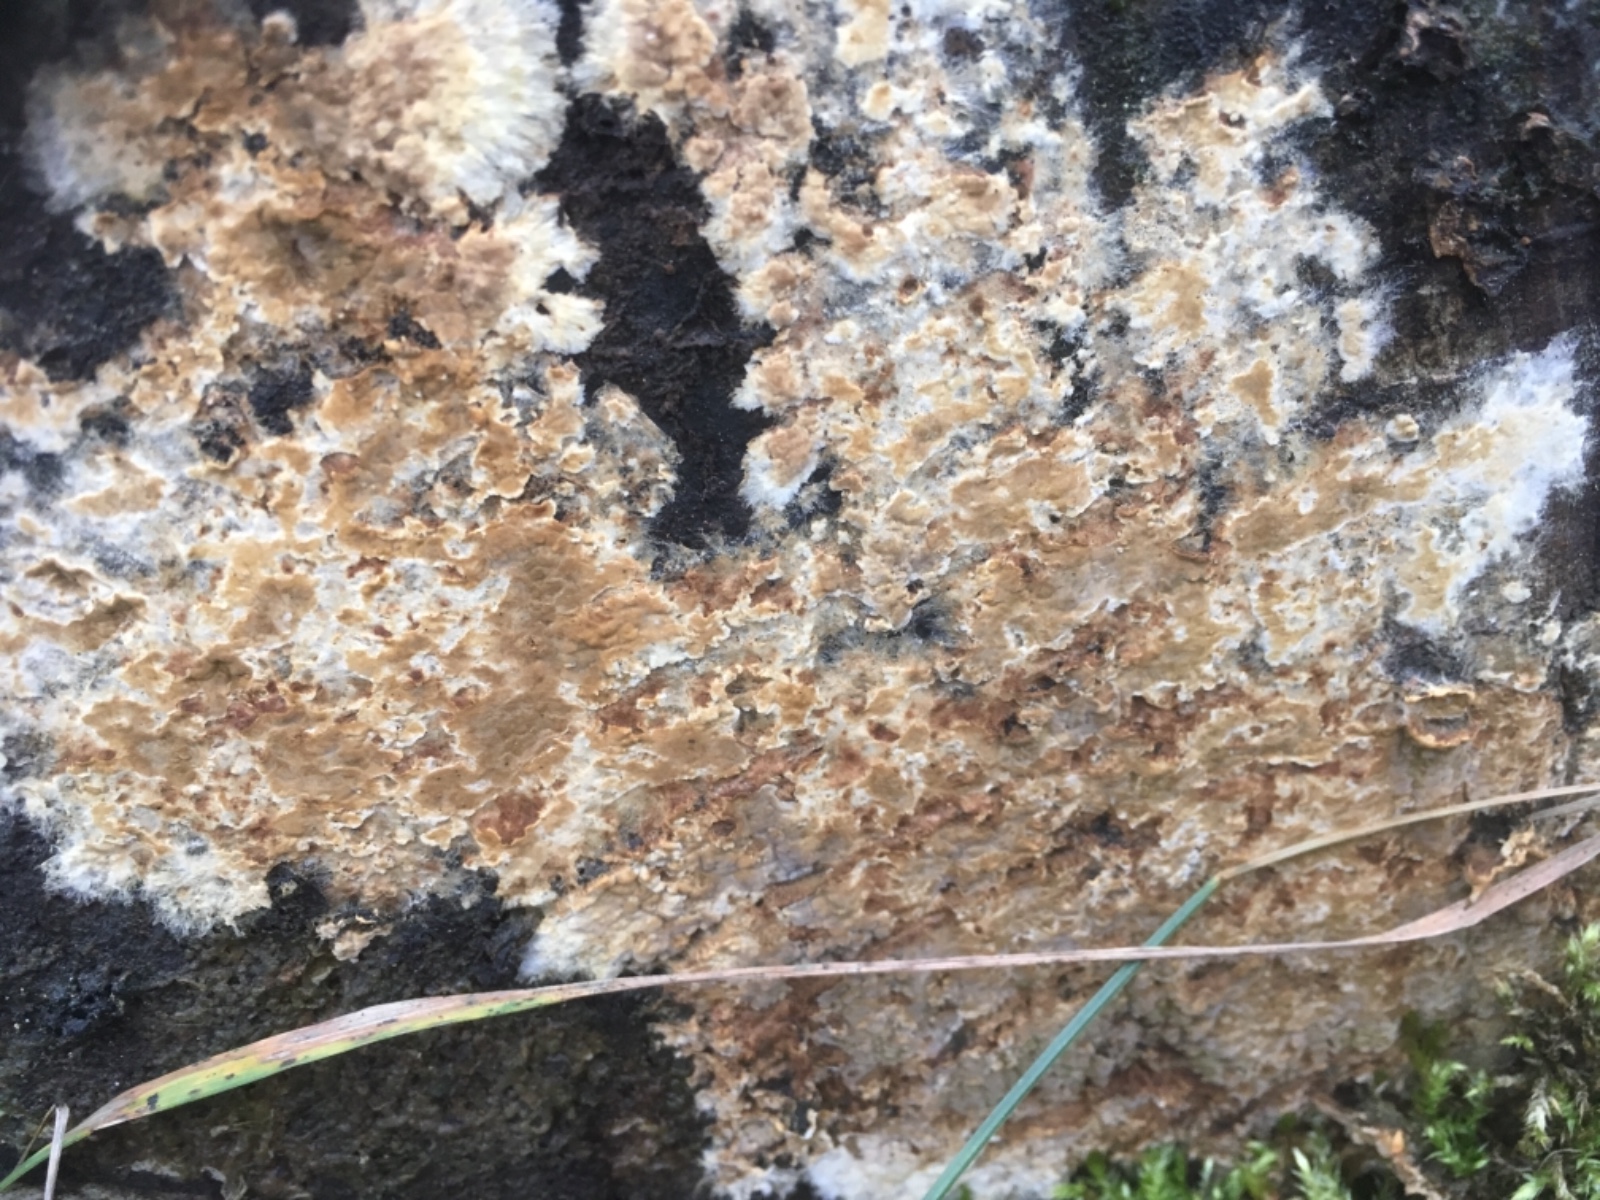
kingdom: Fungi
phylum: Basidiomycota
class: Agaricomycetes
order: Boletales
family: Coniophoraceae
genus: Coniophora
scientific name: Coniophora
